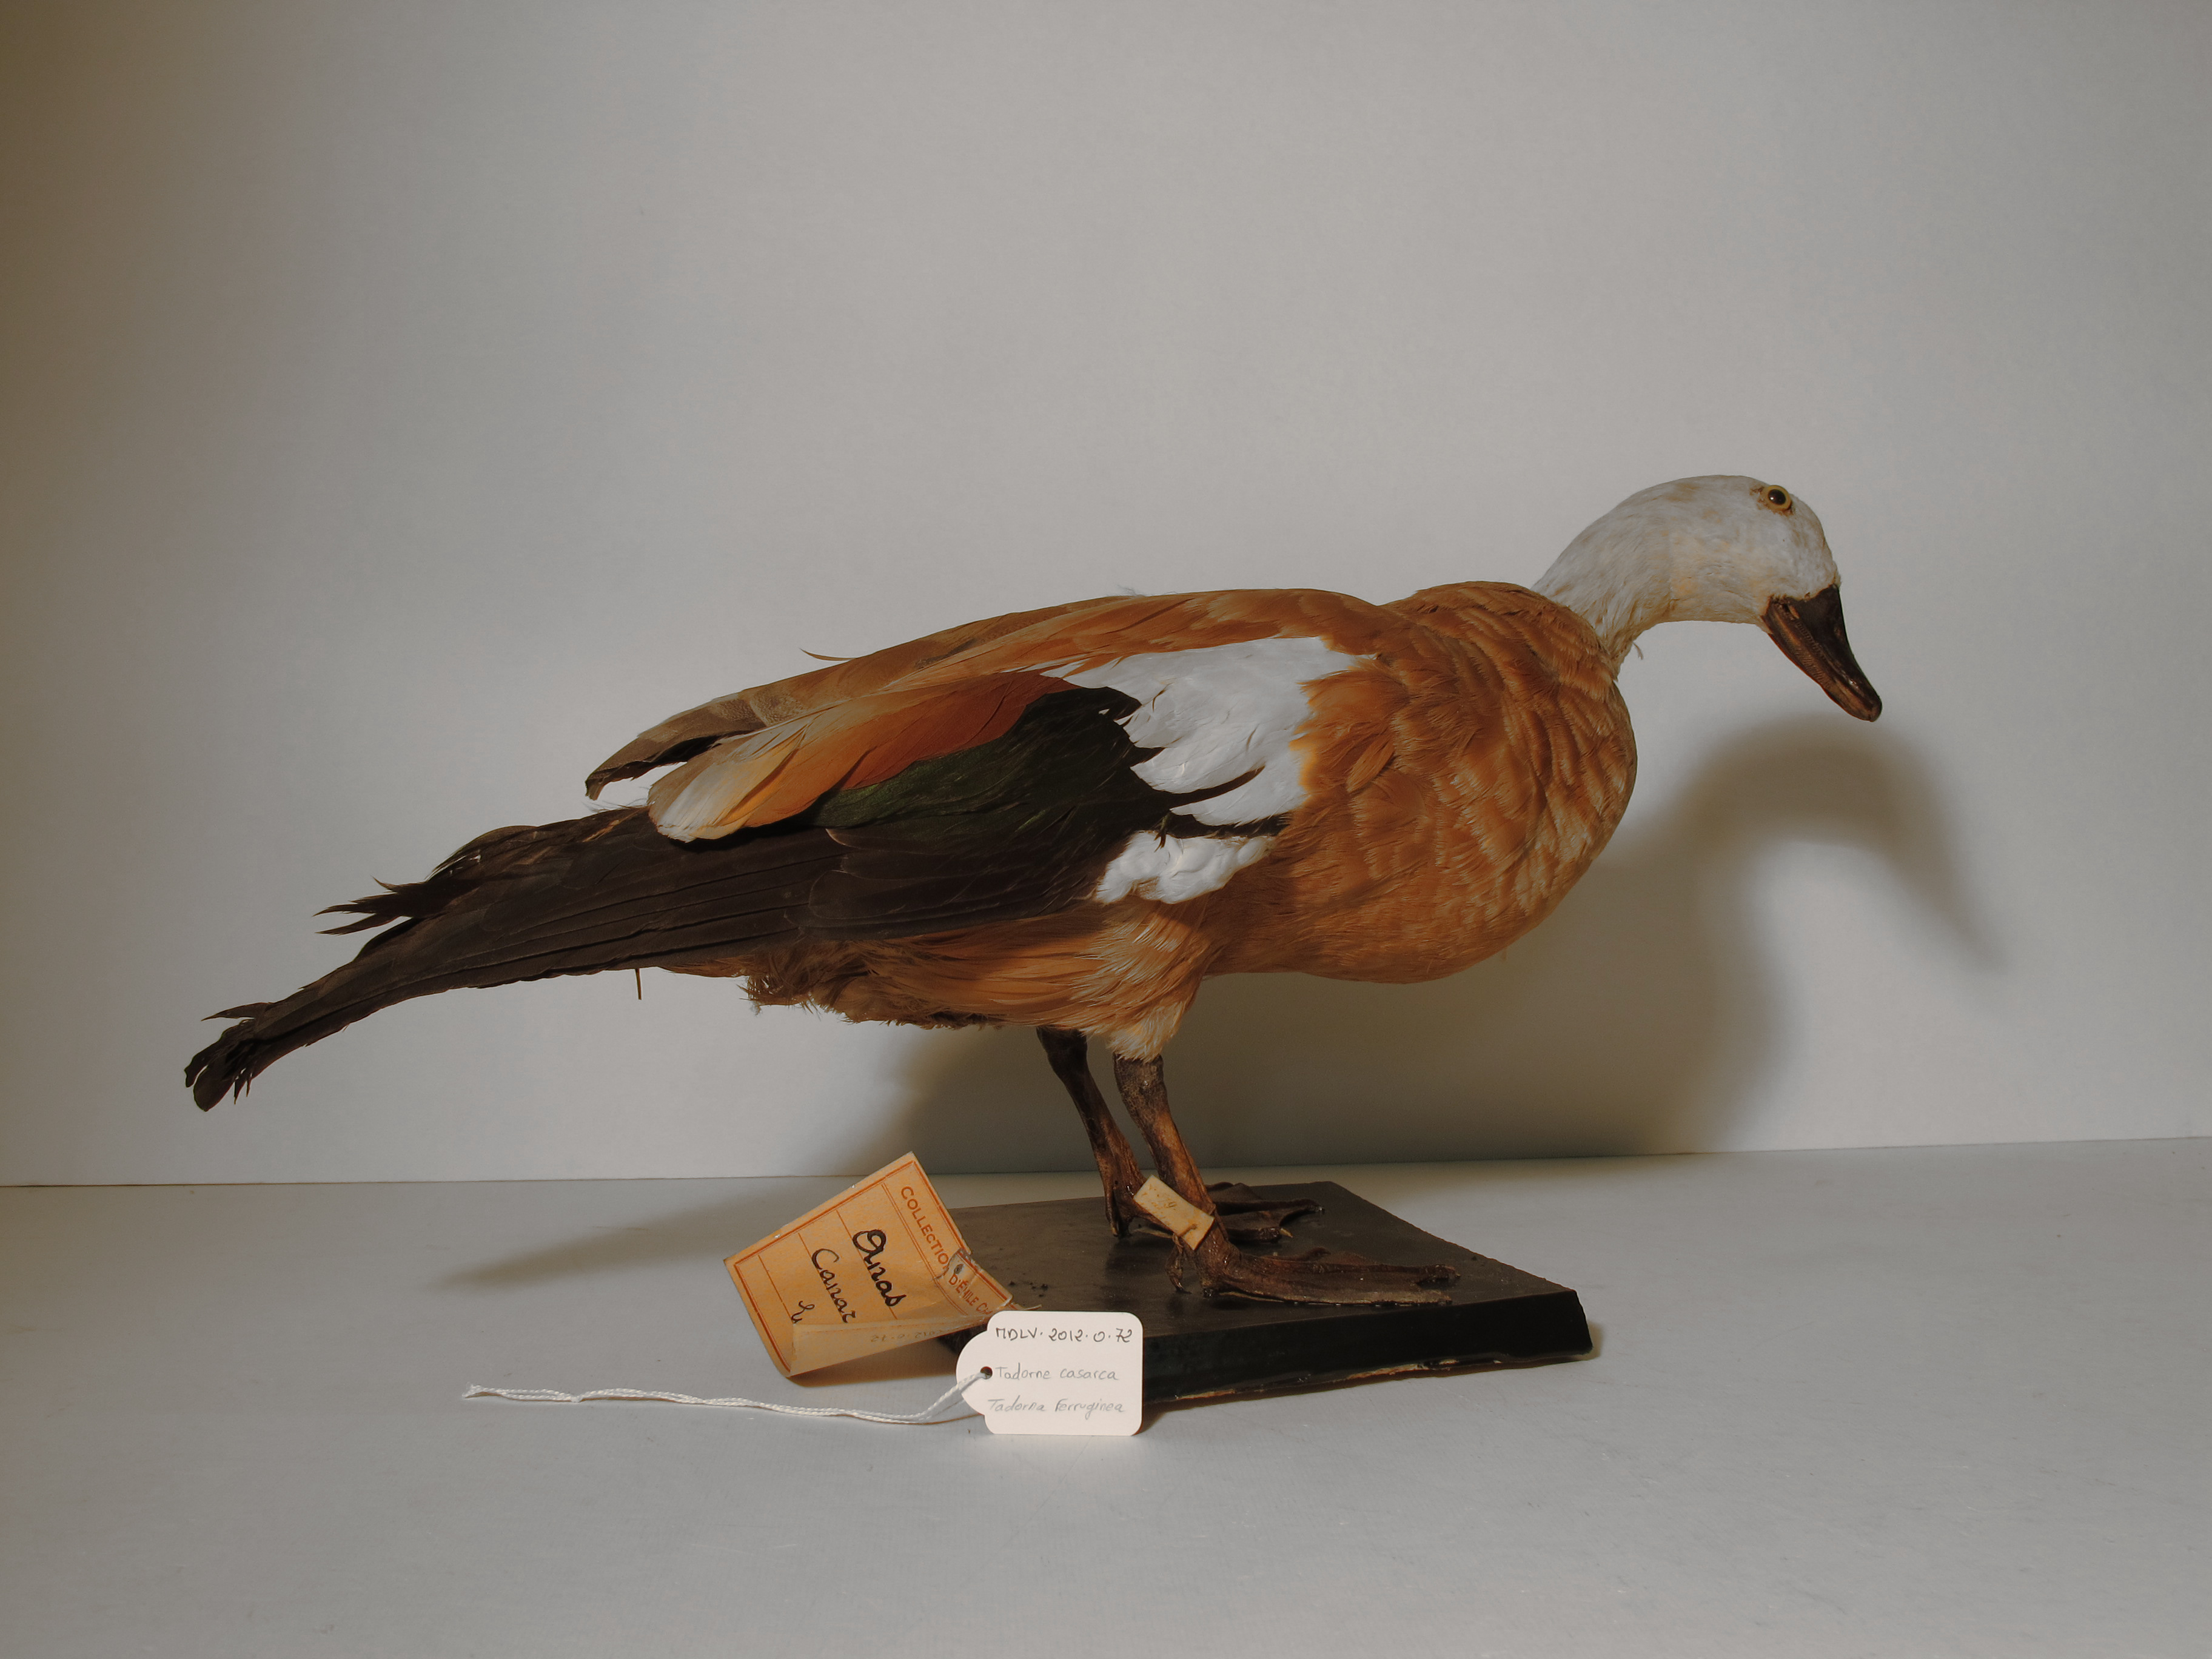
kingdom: Animalia
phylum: Chordata
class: Aves
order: Anseriformes
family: Anatidae
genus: Tadorna
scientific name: Tadorna ferruginea
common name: Ruddy Shelduck
